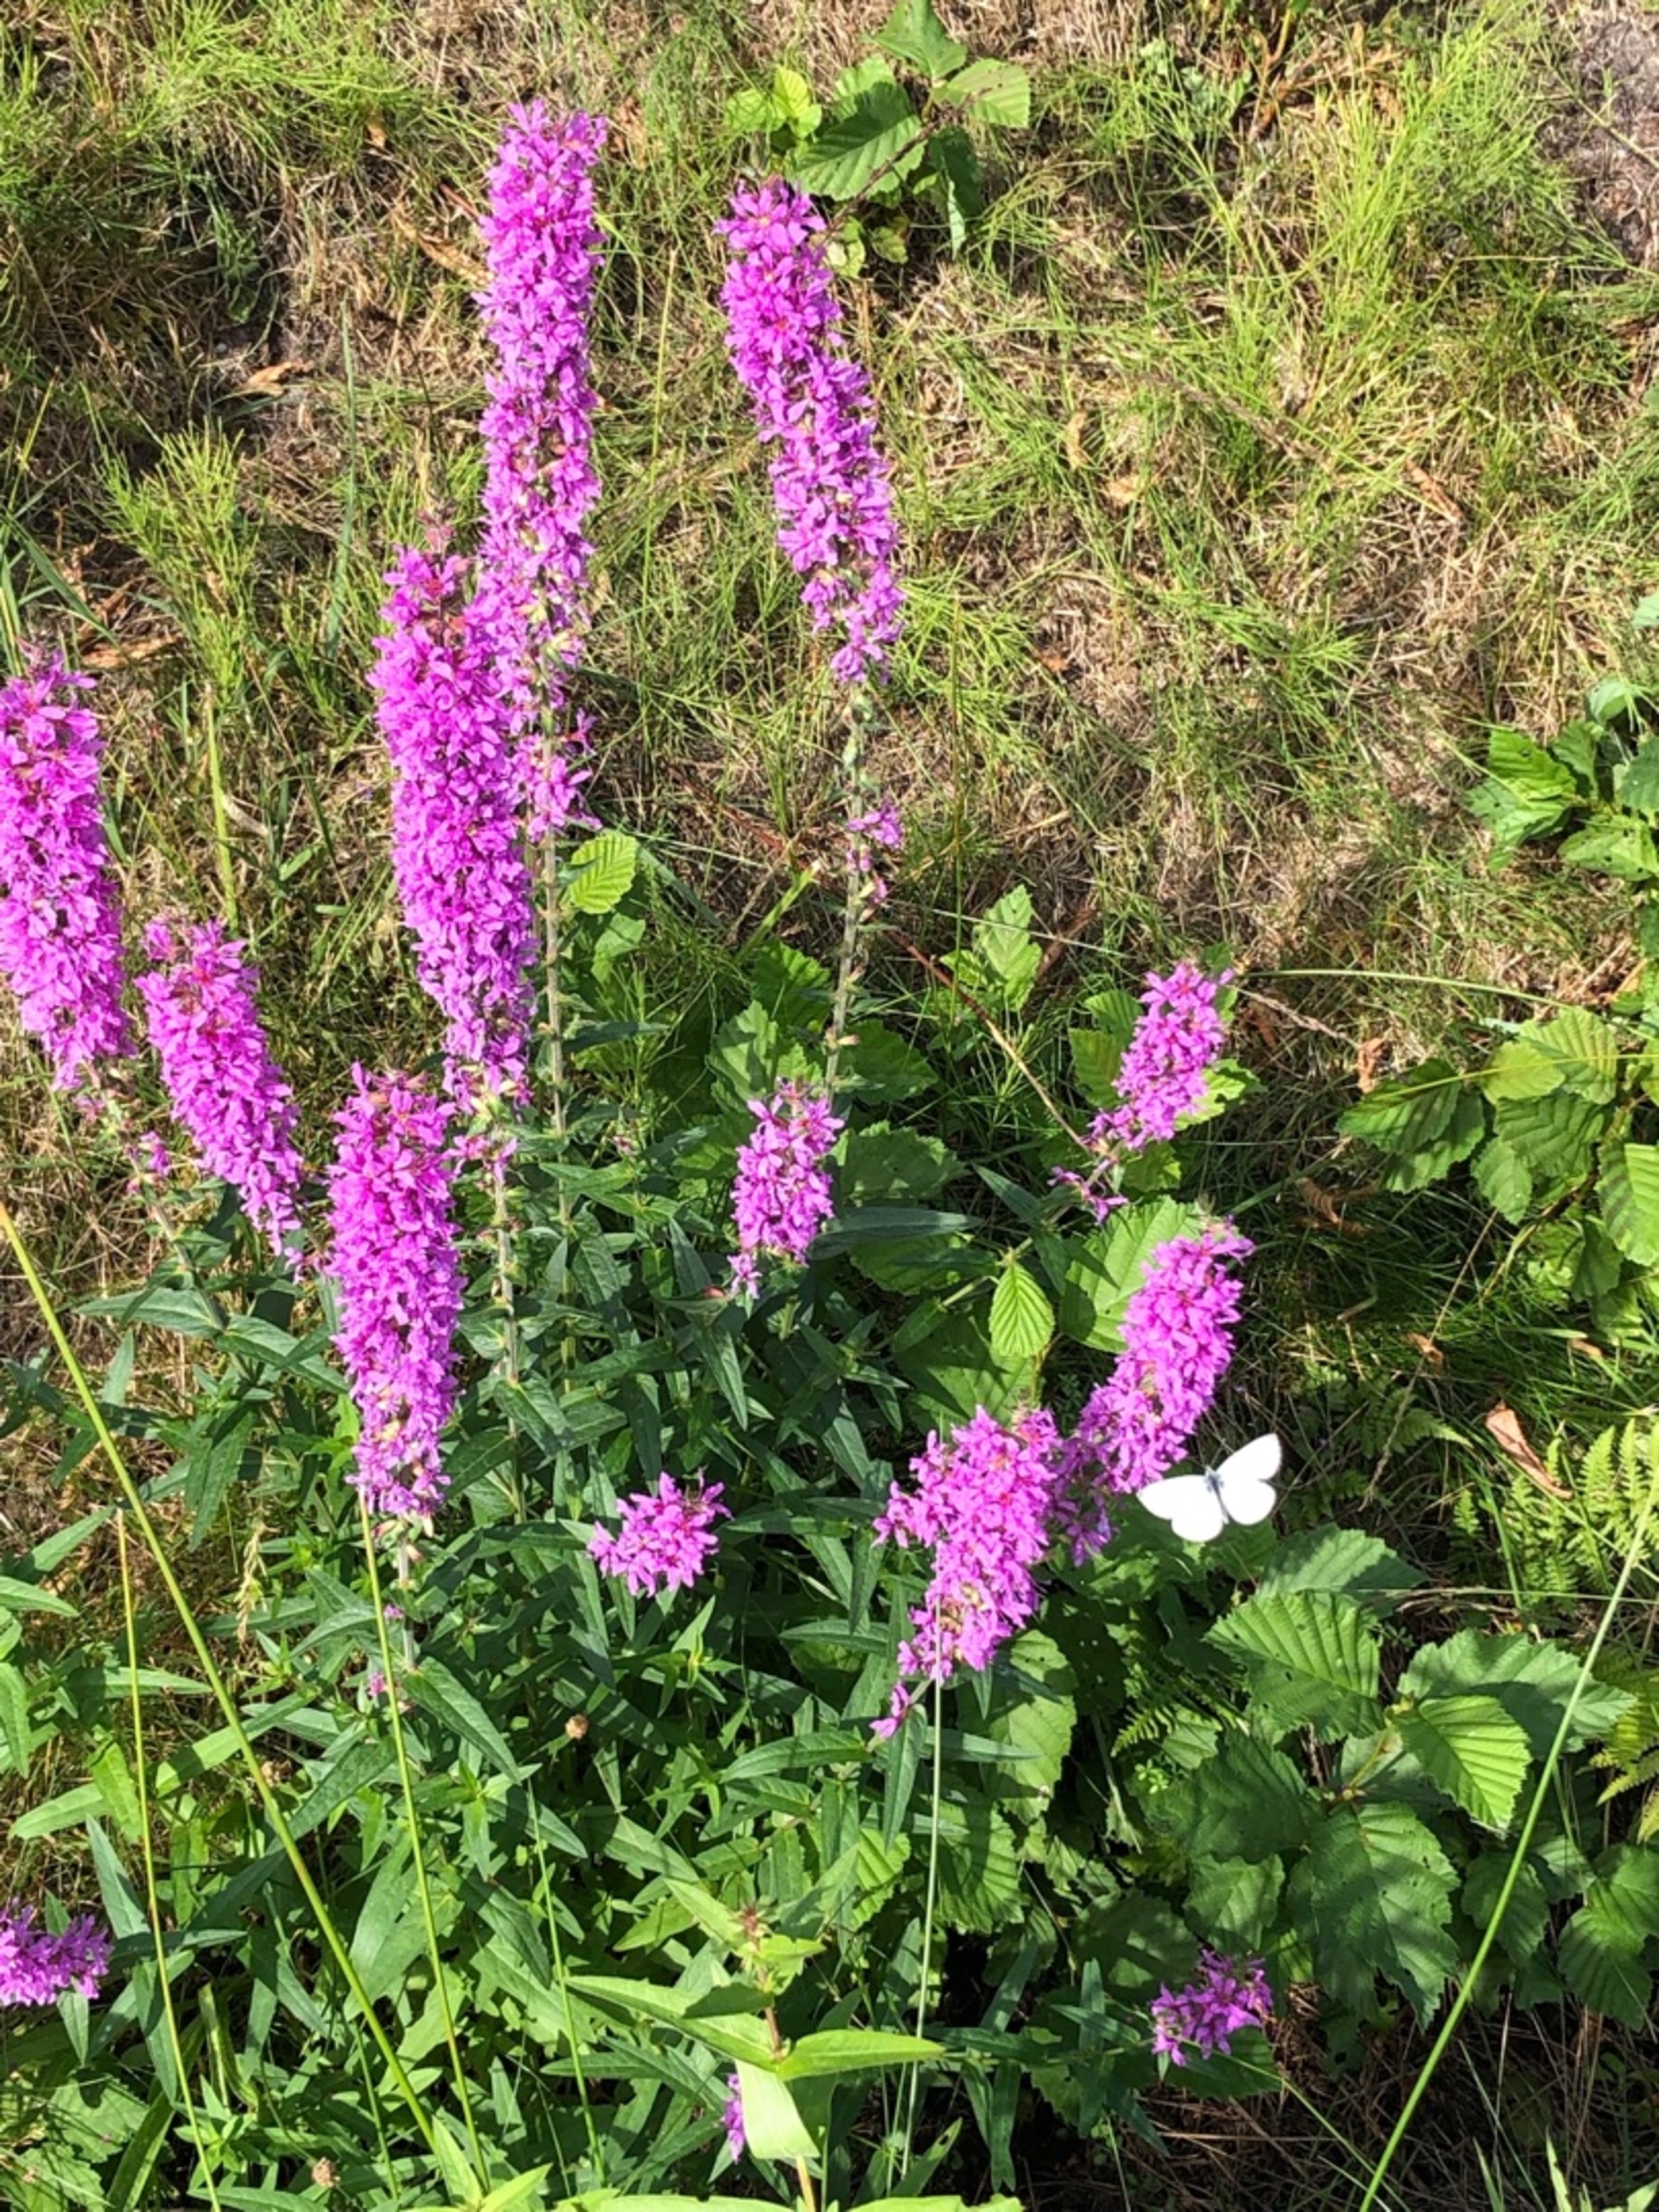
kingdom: Plantae
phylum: Tracheophyta
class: Magnoliopsida
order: Myrtales
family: Lythraceae
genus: Lythrum
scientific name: Lythrum salicaria
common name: Kattehale
